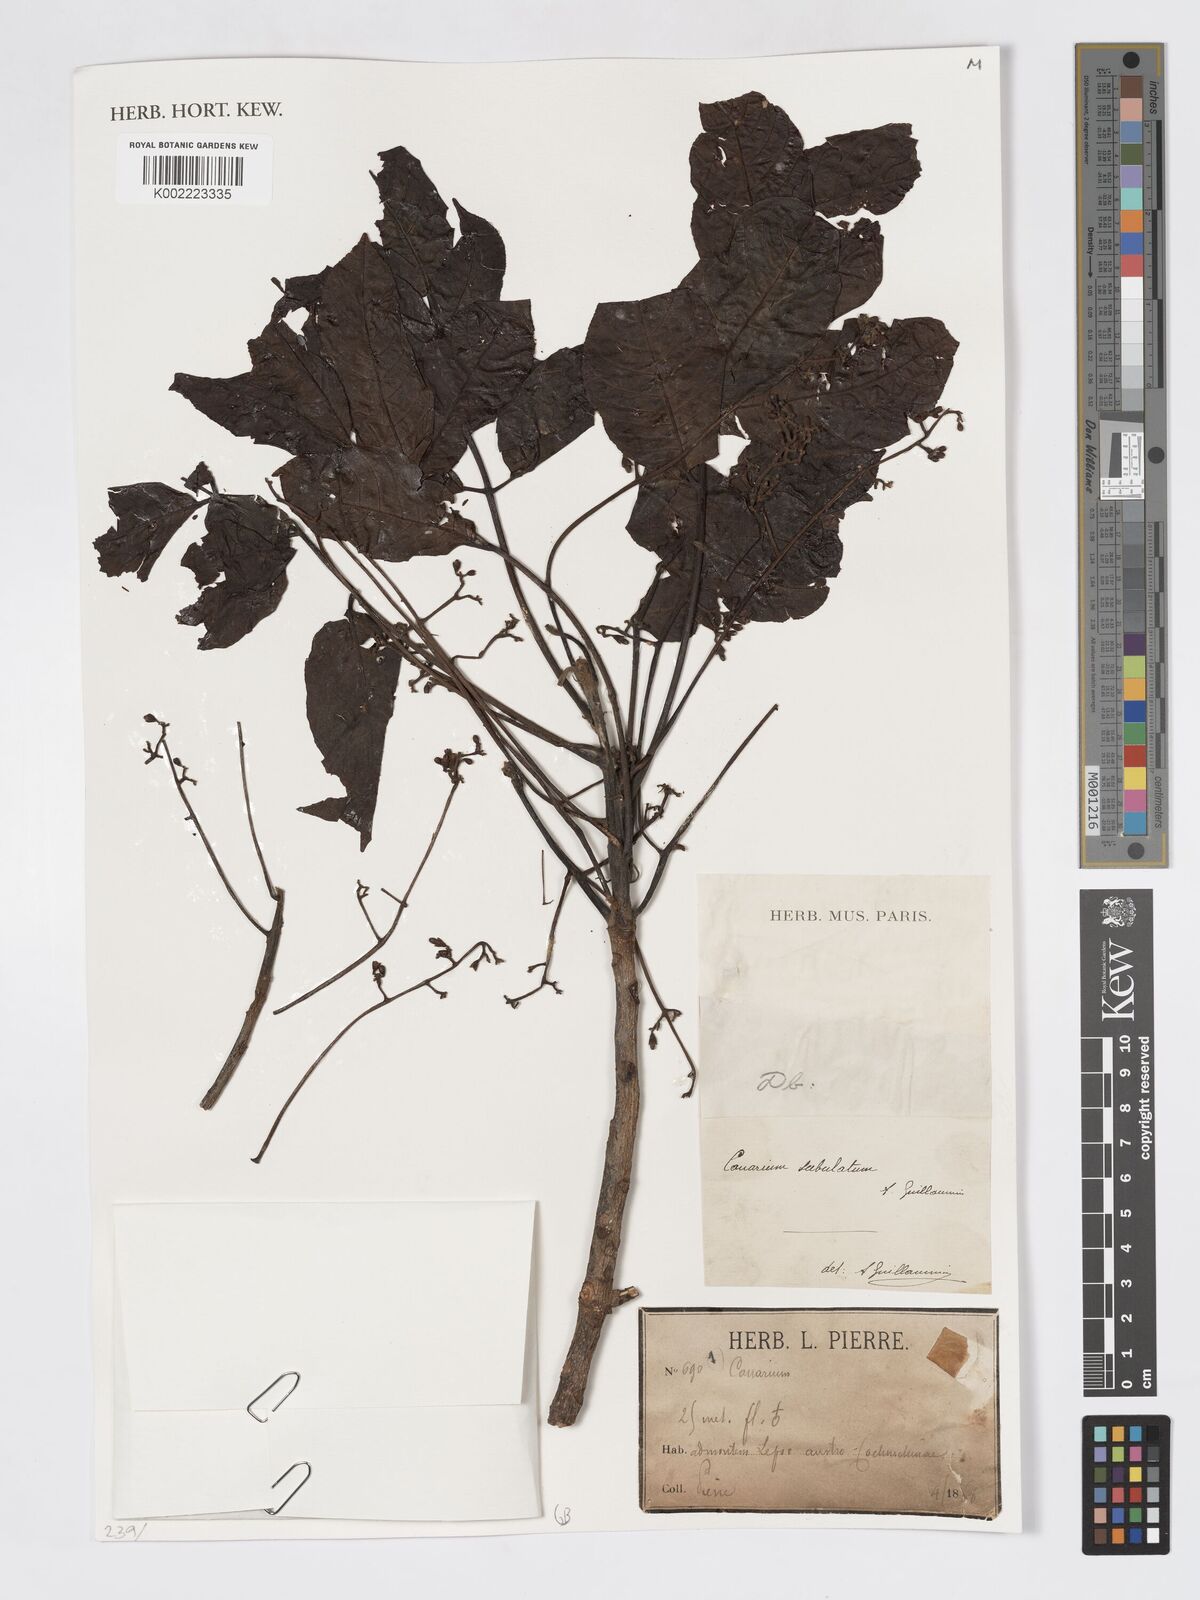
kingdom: Plantae
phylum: Tracheophyta
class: Magnoliopsida
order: Sapindales
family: Burseraceae
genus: Canarium
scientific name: Canarium
